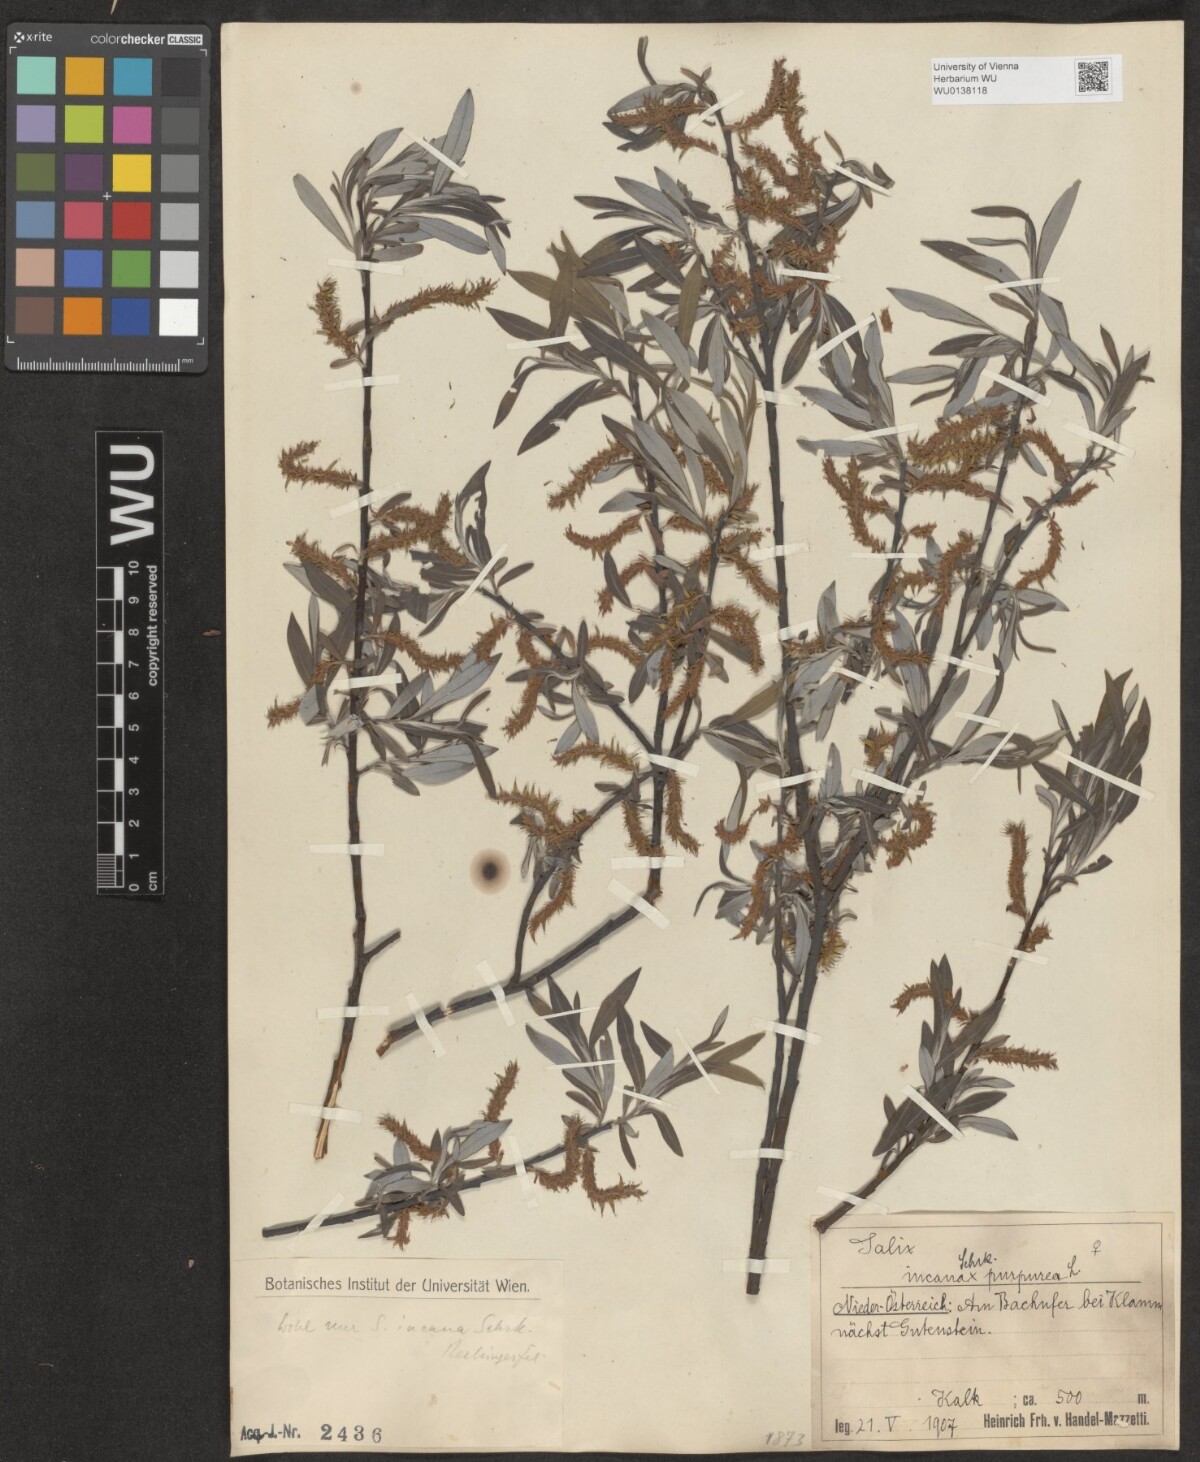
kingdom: Plantae
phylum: Tracheophyta
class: Magnoliopsida
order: Malpighiales
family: Salicaceae
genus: Salix
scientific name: Salix eleagnos
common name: Elaeagnus willow
